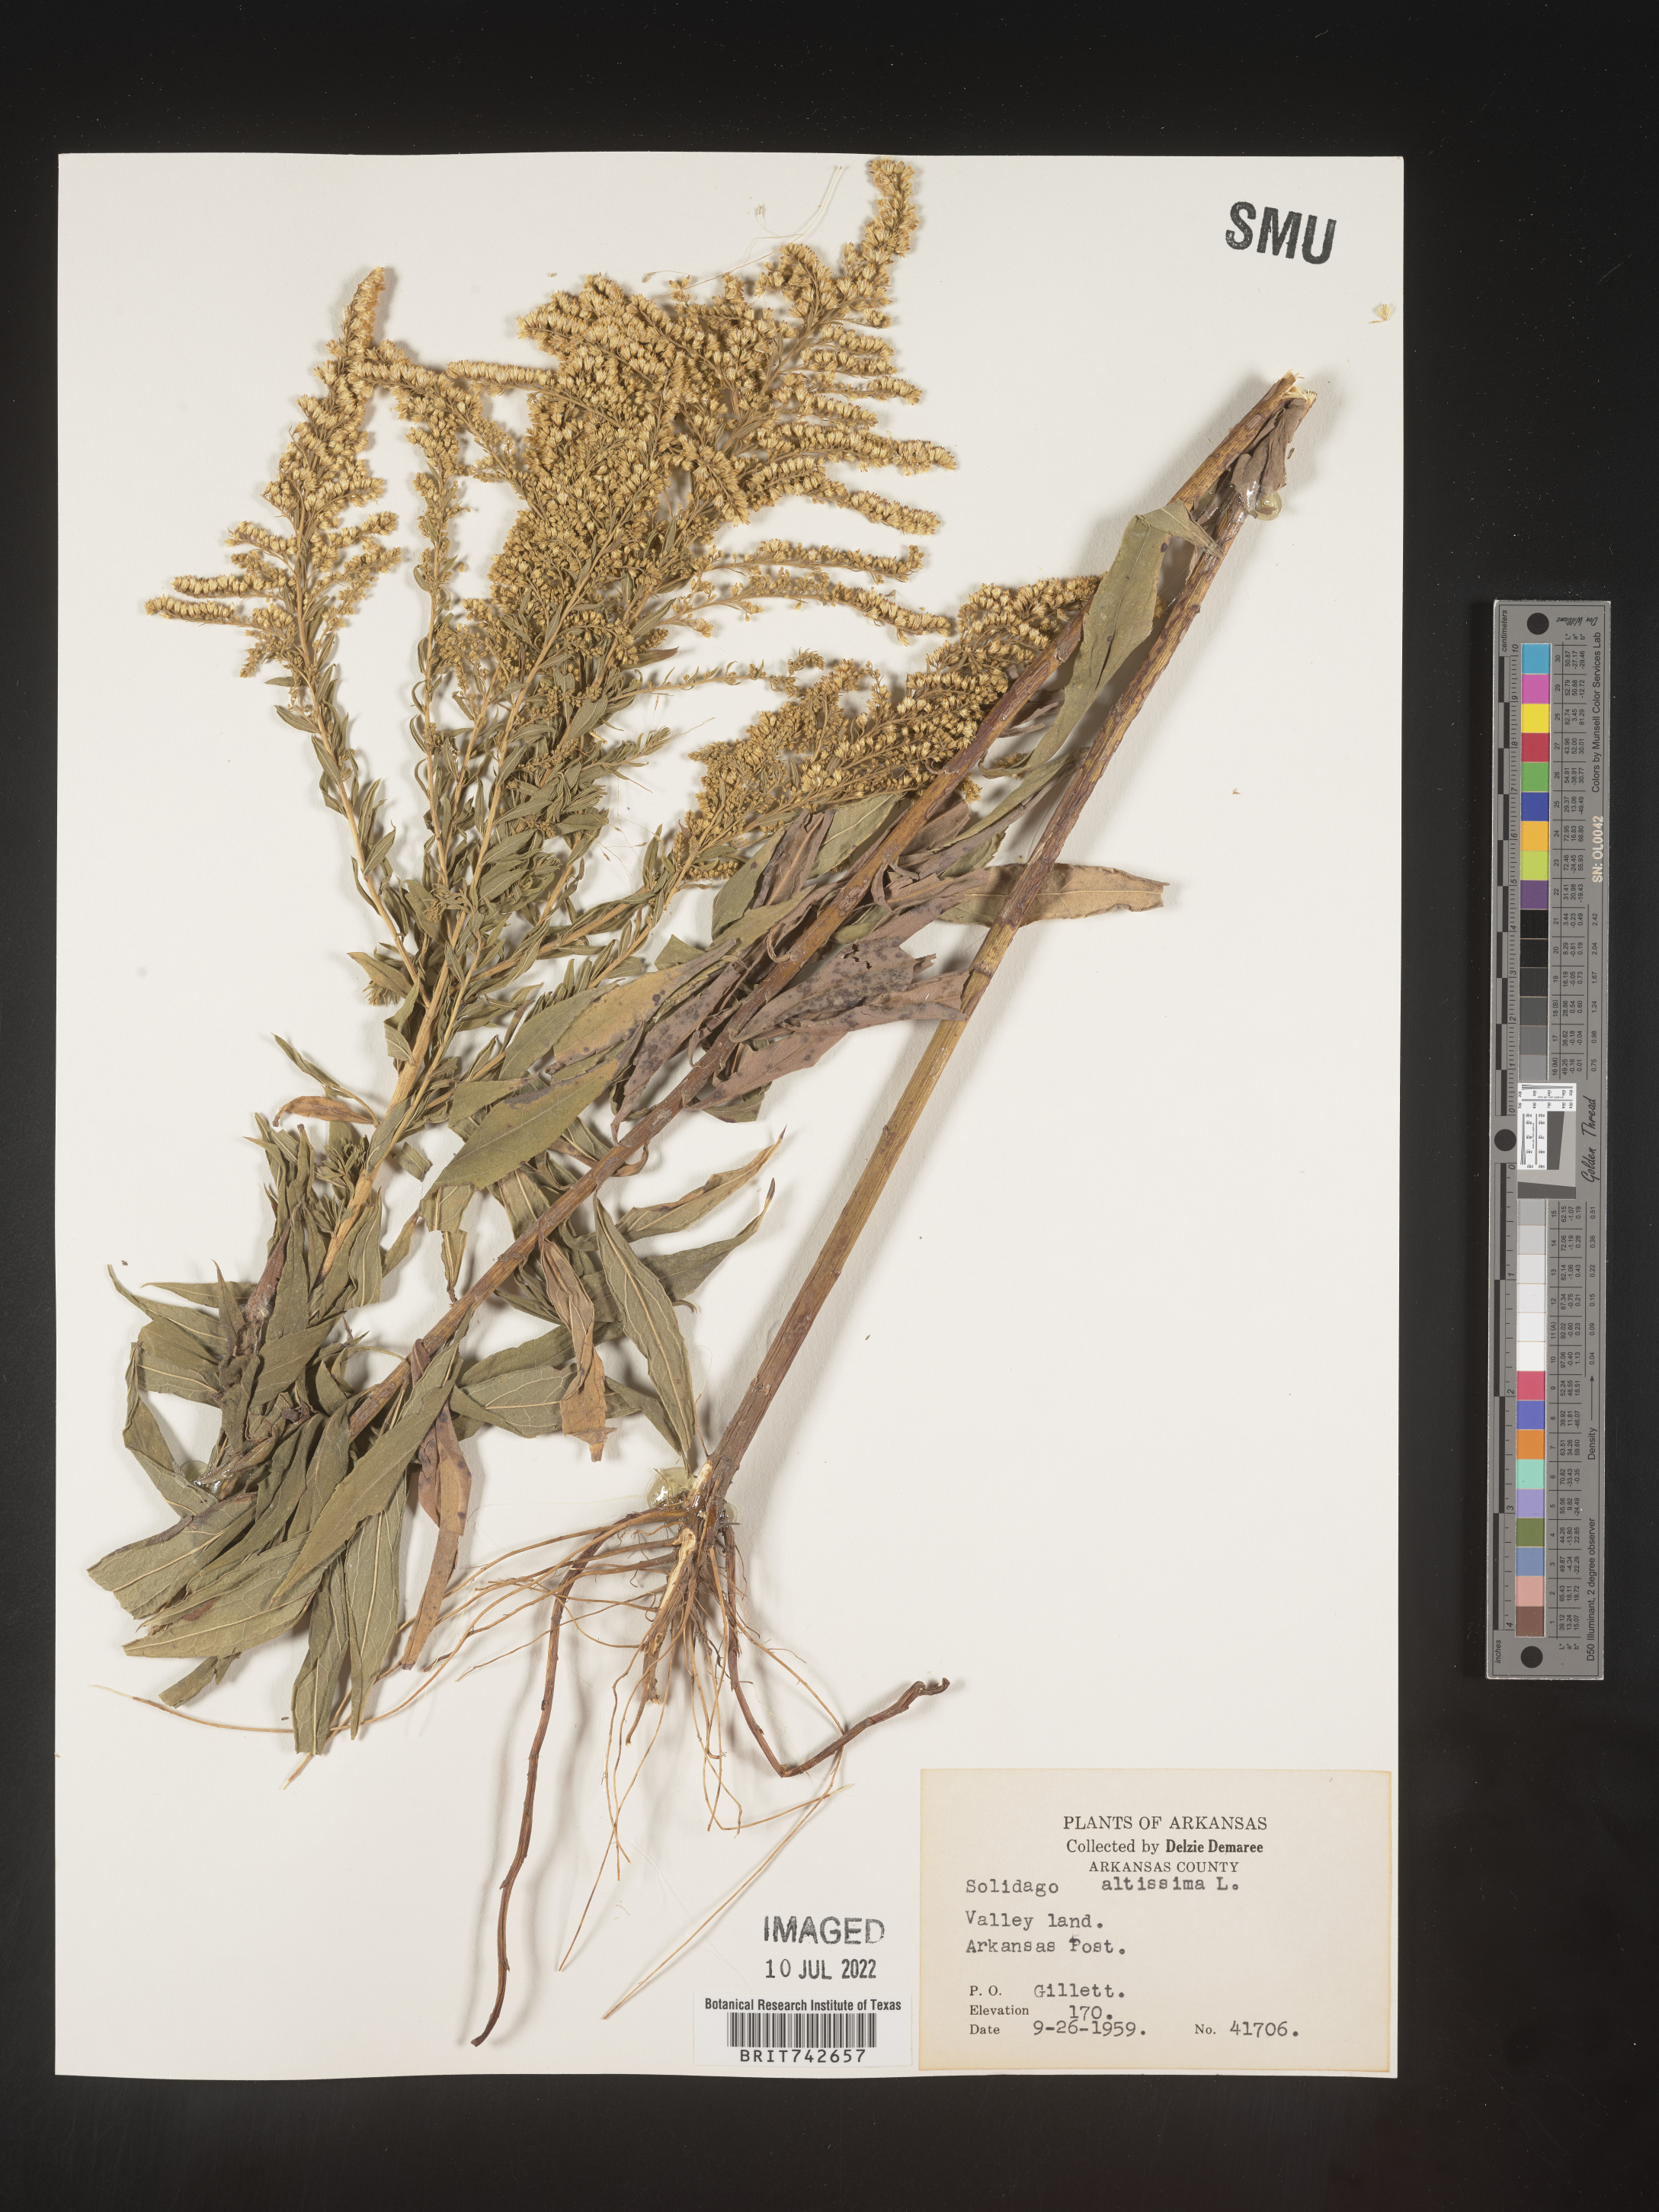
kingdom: Plantae
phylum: Tracheophyta
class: Magnoliopsida
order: Asterales
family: Asteraceae
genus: Solidago
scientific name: Solidago altissima
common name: Late goldenrod
